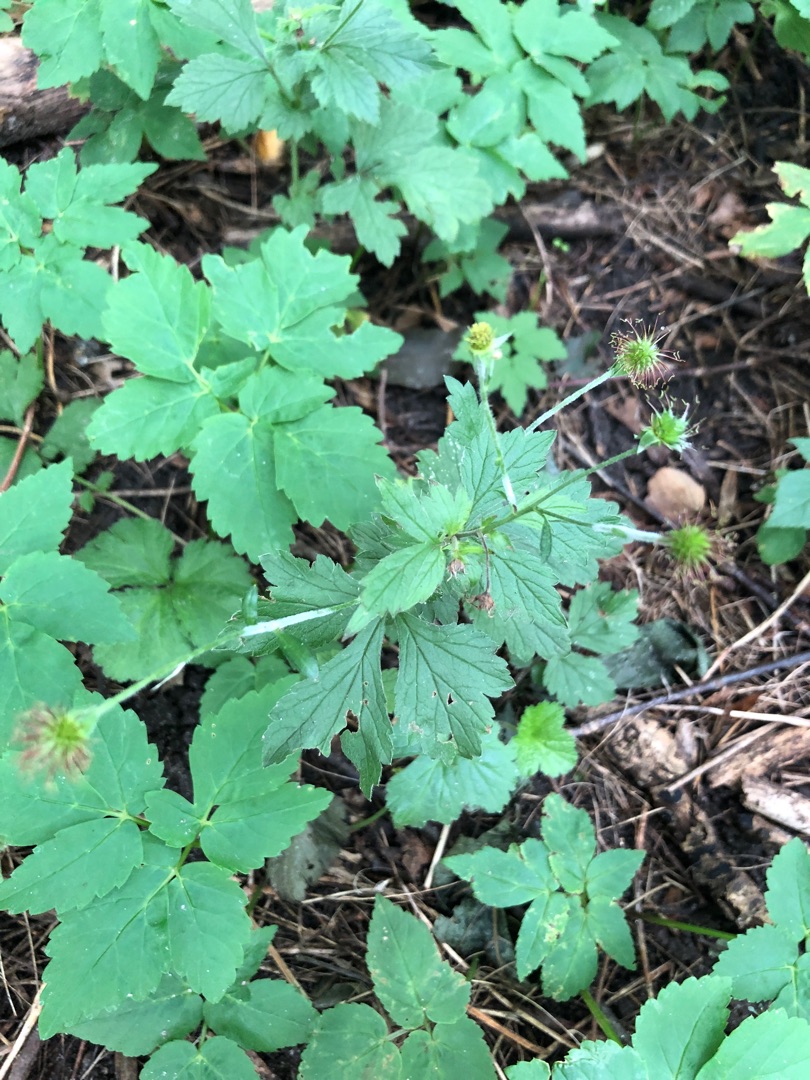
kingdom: Plantae
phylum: Tracheophyta
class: Magnoliopsida
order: Rosales
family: Rosaceae
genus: Geum
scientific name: Geum urbanum
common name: Feber-nellikerod
